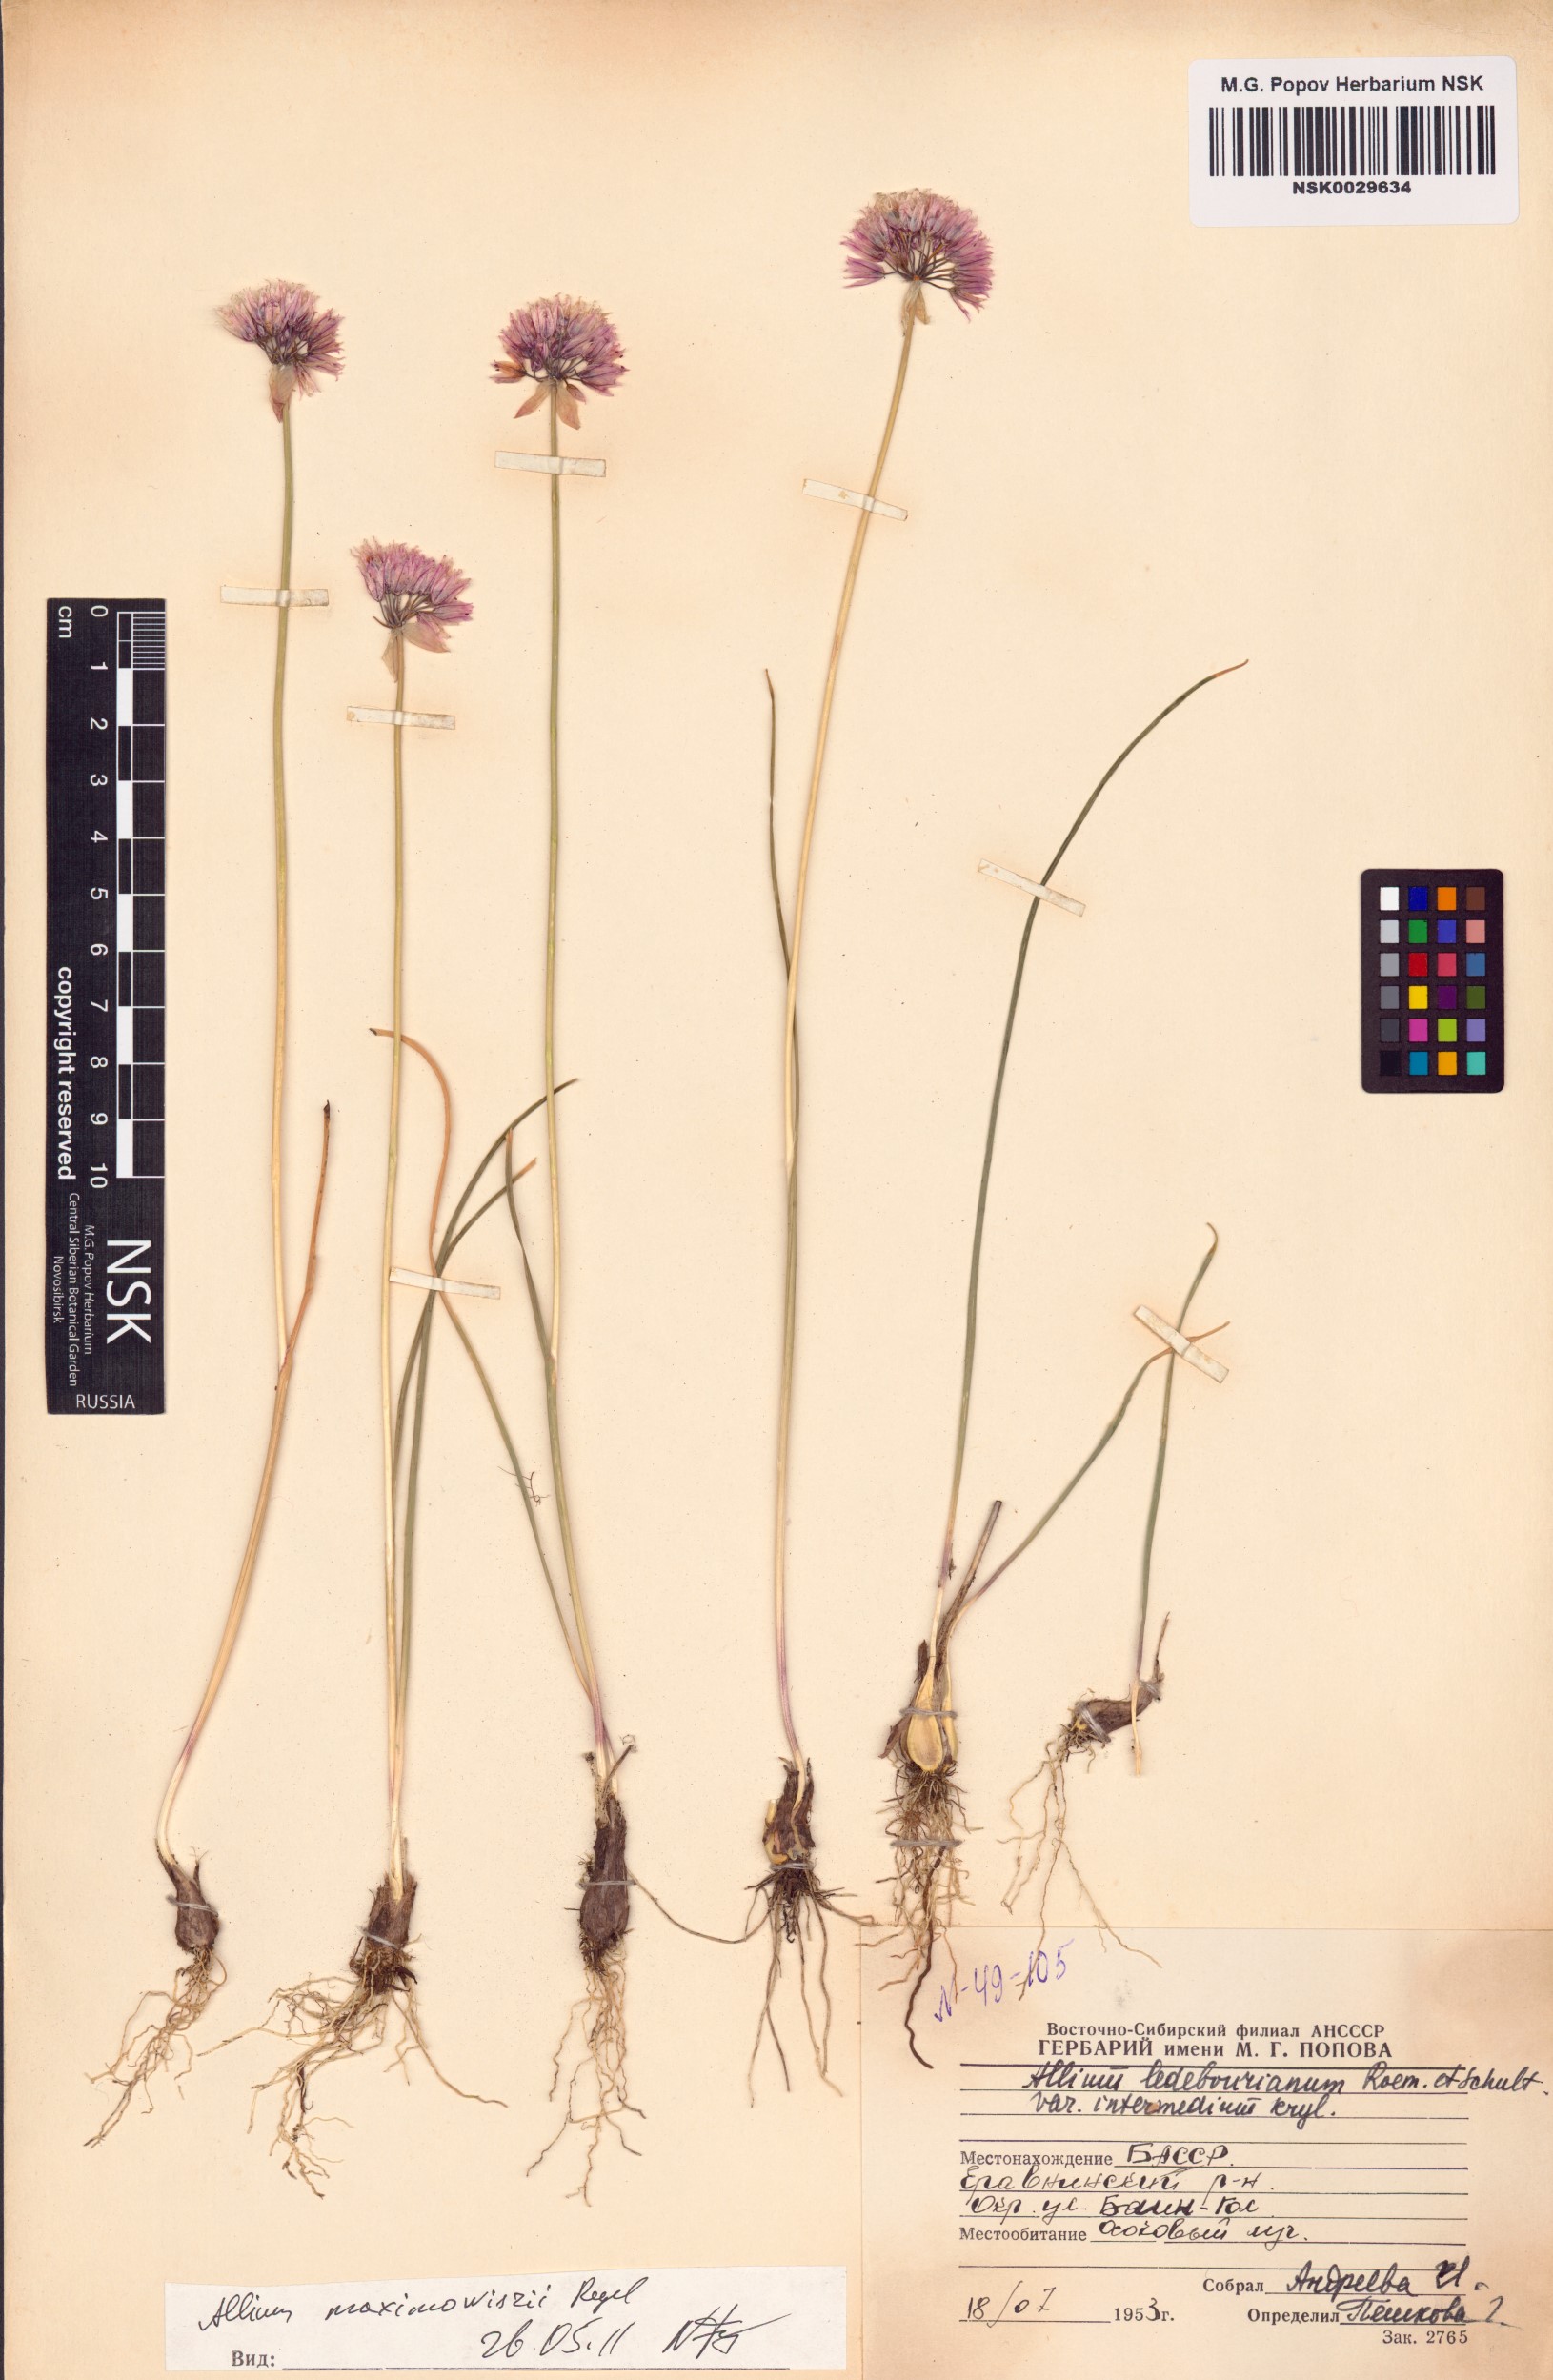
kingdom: Plantae
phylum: Tracheophyta
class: Liliopsida
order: Asparagales
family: Amaryllidaceae
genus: Allium
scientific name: Allium maximowiczii
